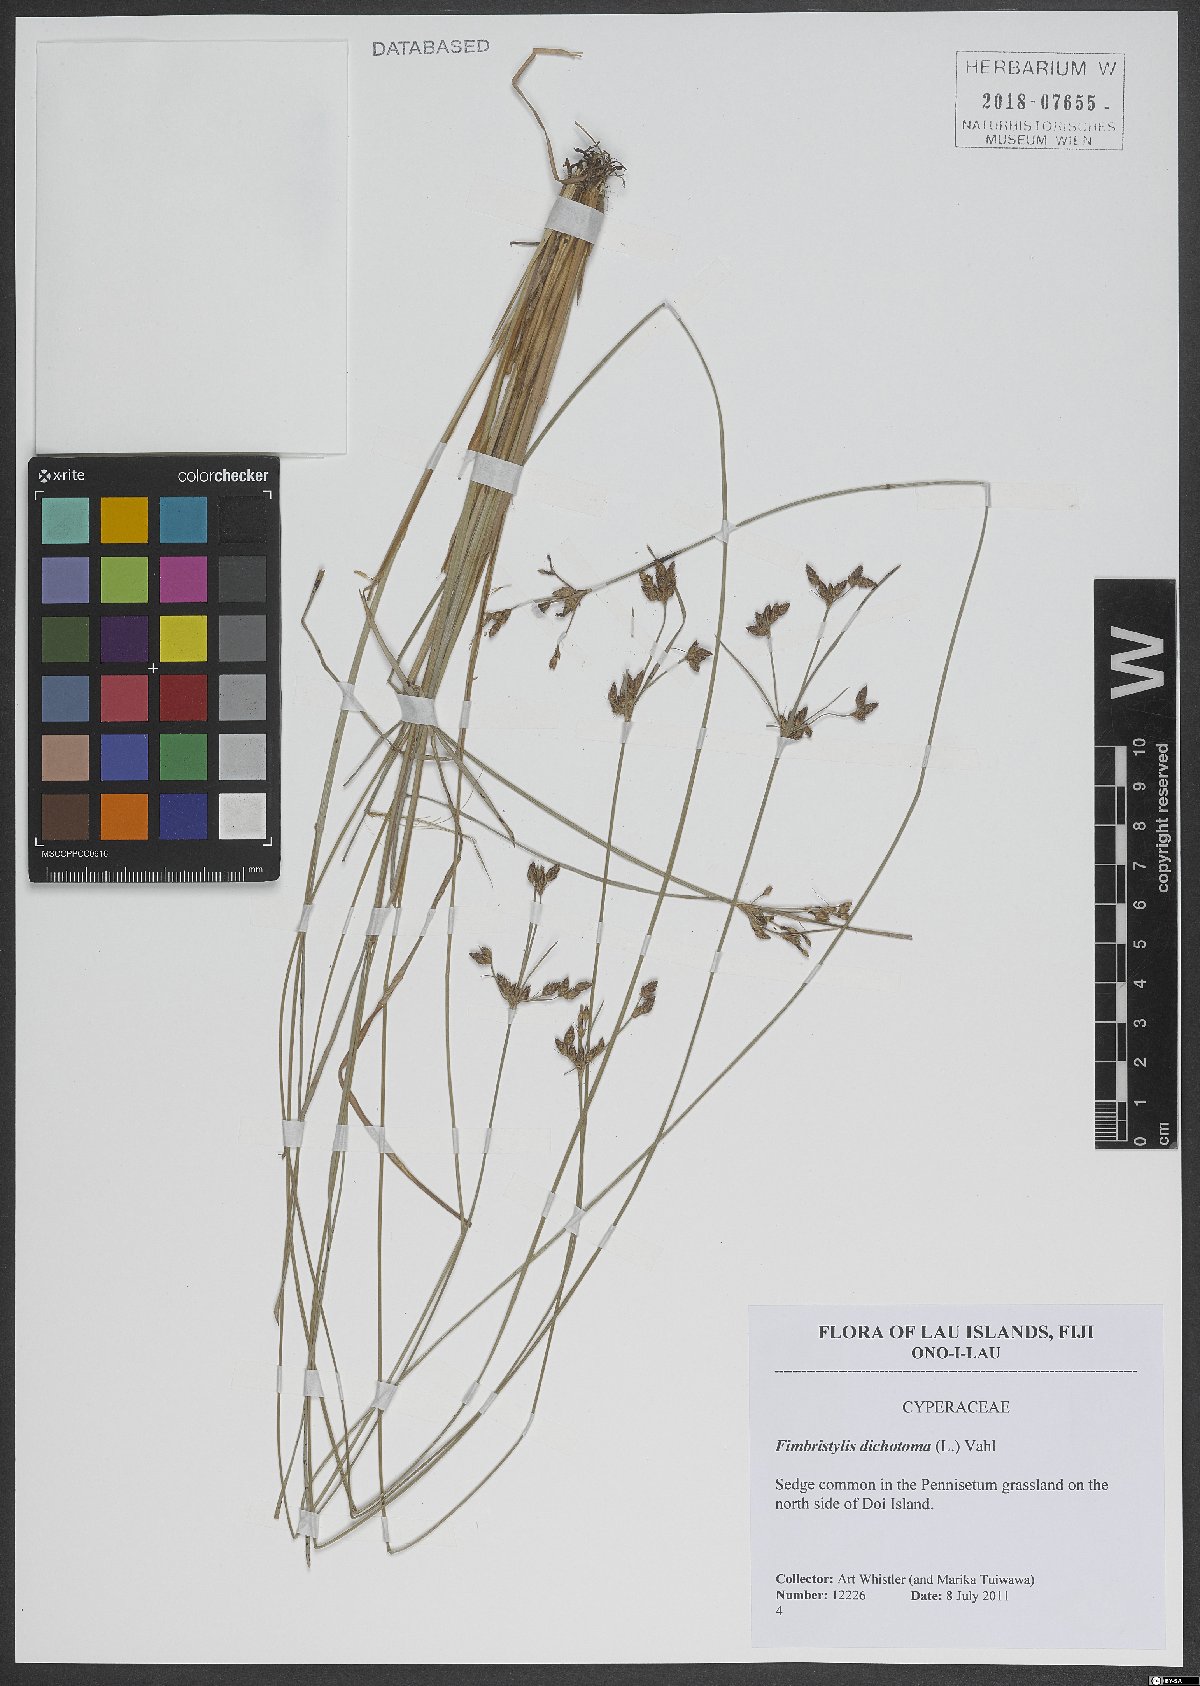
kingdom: Plantae
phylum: Tracheophyta
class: Liliopsida
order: Poales
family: Cyperaceae
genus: Fimbristylis
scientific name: Fimbristylis dichotoma
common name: Forked fimbry
